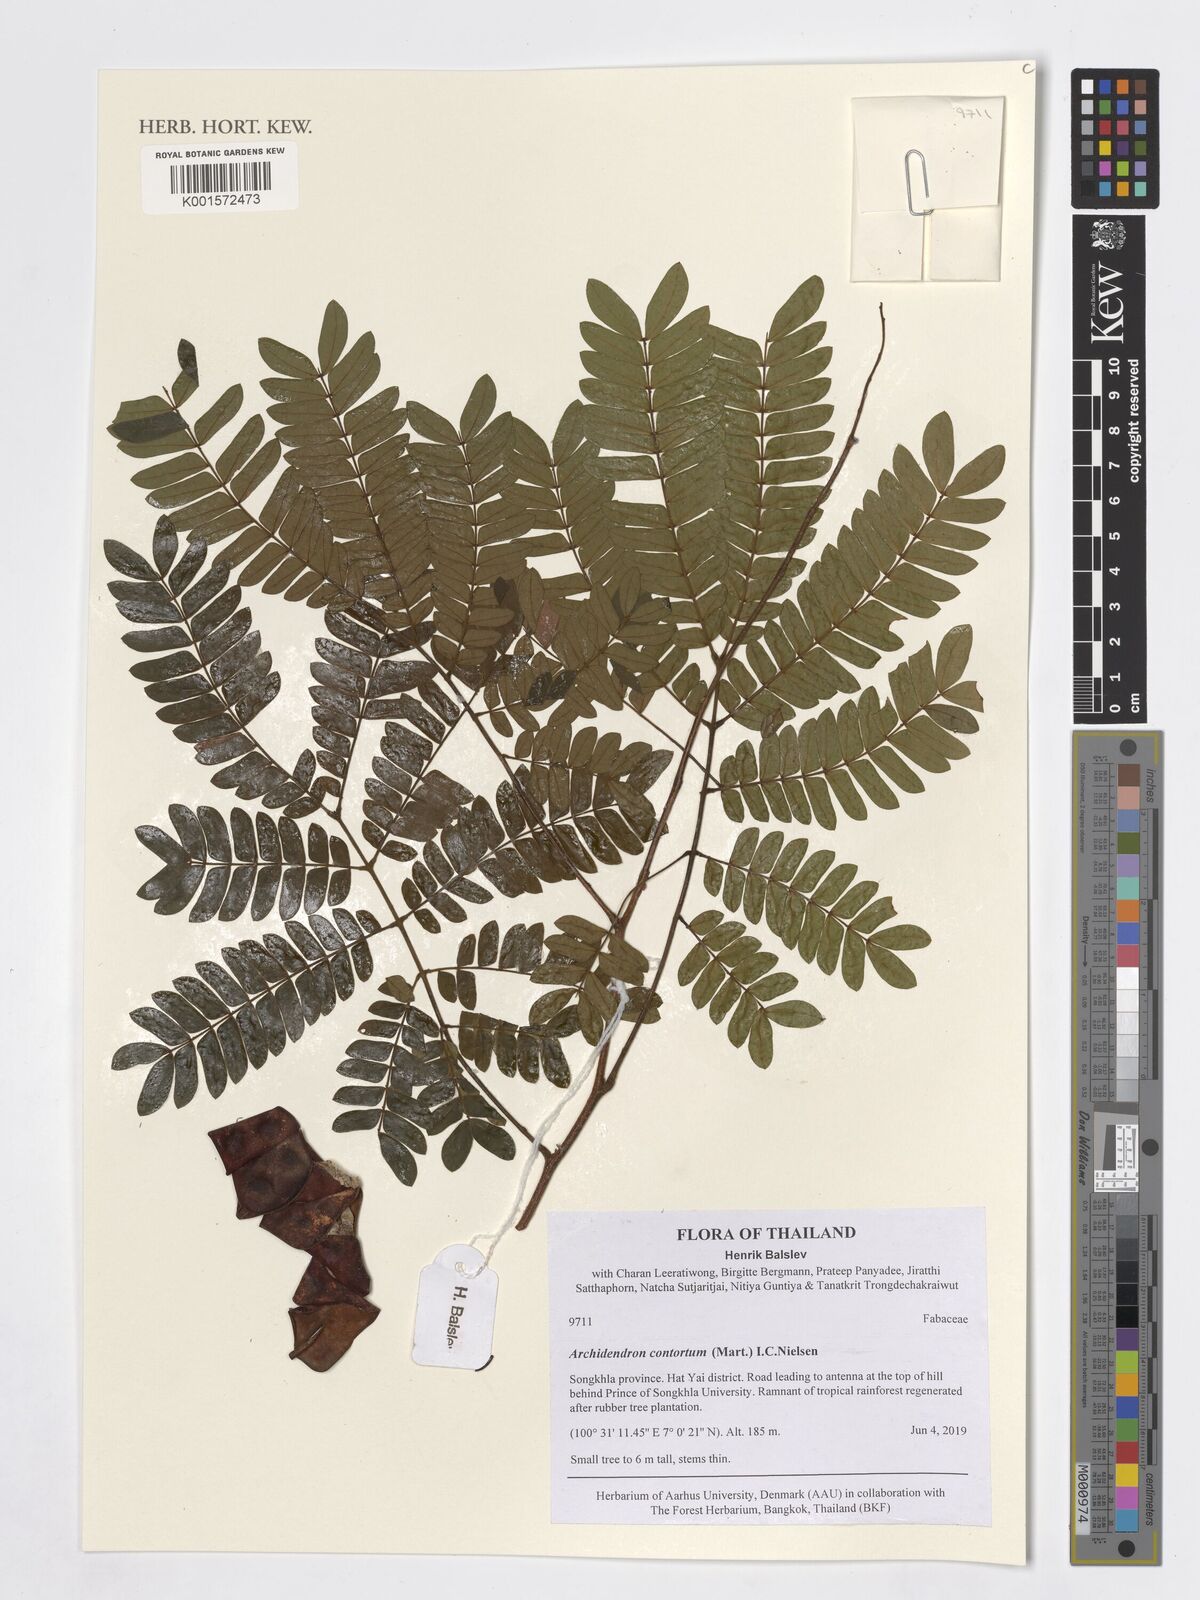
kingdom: Plantae
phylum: Tracheophyta
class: Magnoliopsida
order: Fabales
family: Fabaceae
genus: Archidendron
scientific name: Archidendron contortum
